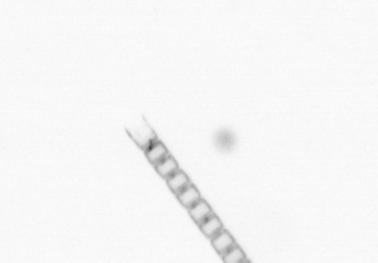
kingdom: Chromista
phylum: Ochrophyta
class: Bacillariophyceae
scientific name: Bacillariophyceae
